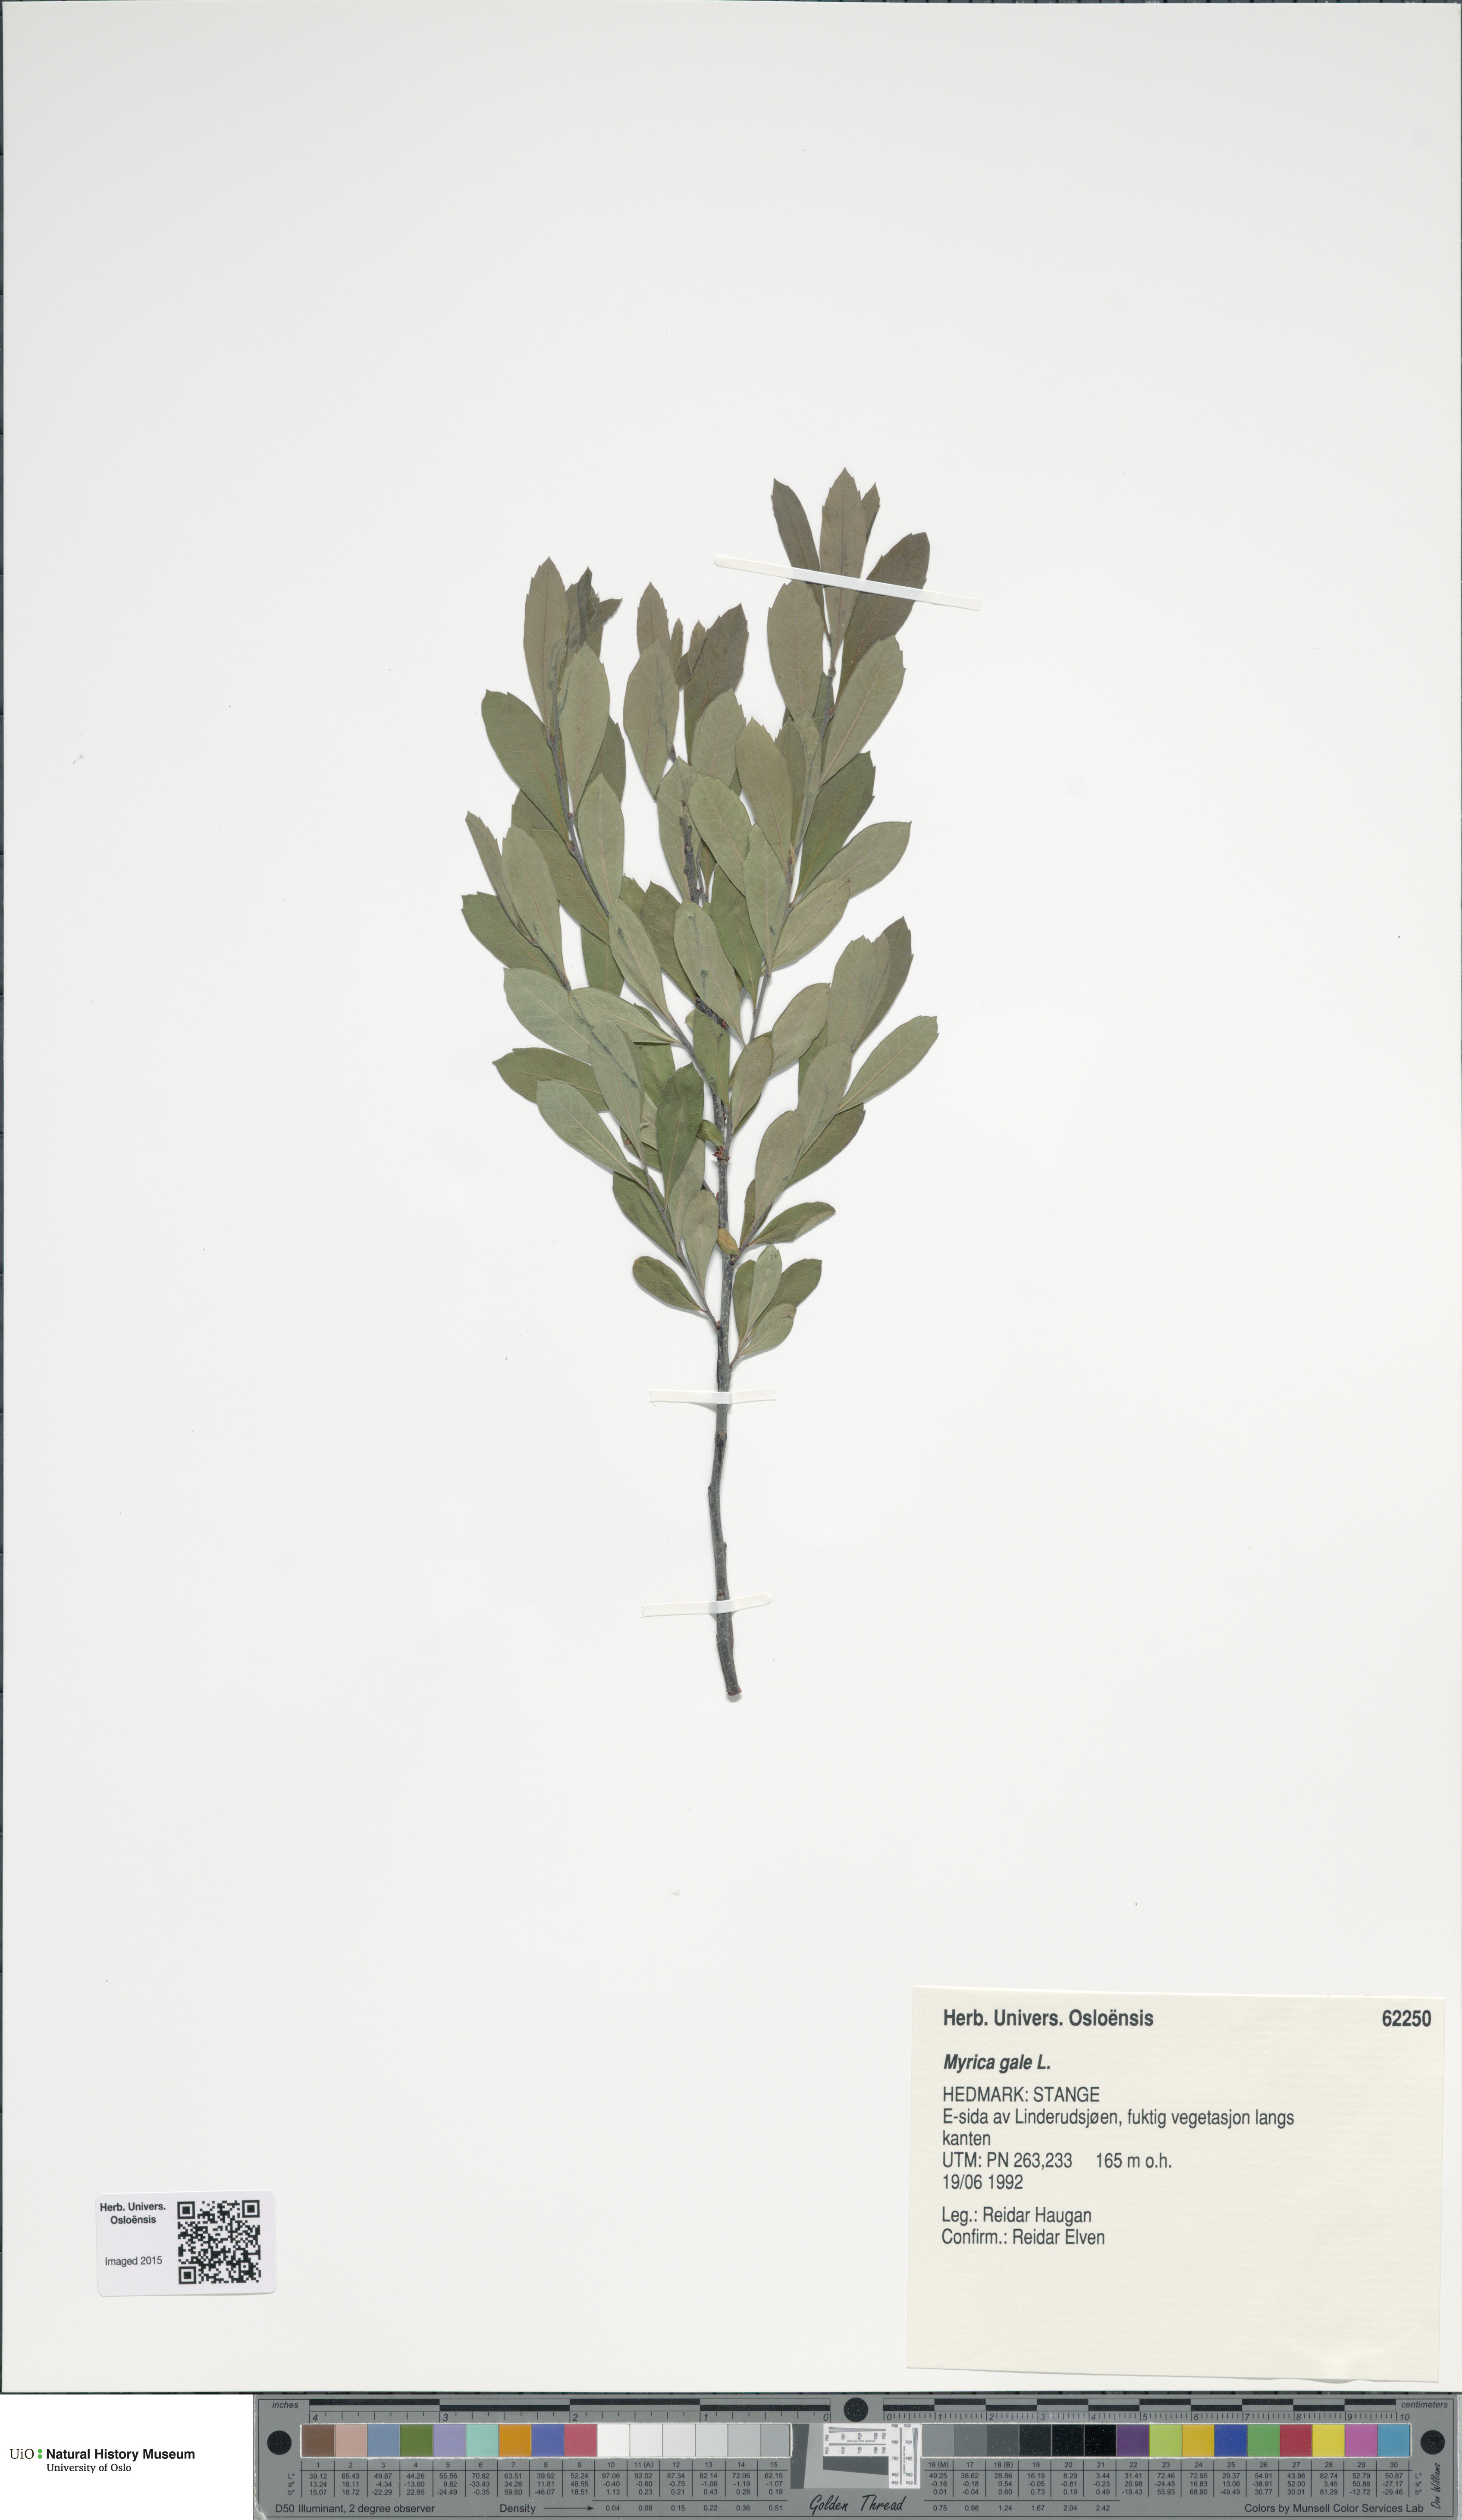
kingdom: Plantae
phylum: Tracheophyta
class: Magnoliopsida
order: Fagales
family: Myricaceae
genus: Myrica
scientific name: Myrica gale
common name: Sweet gale
